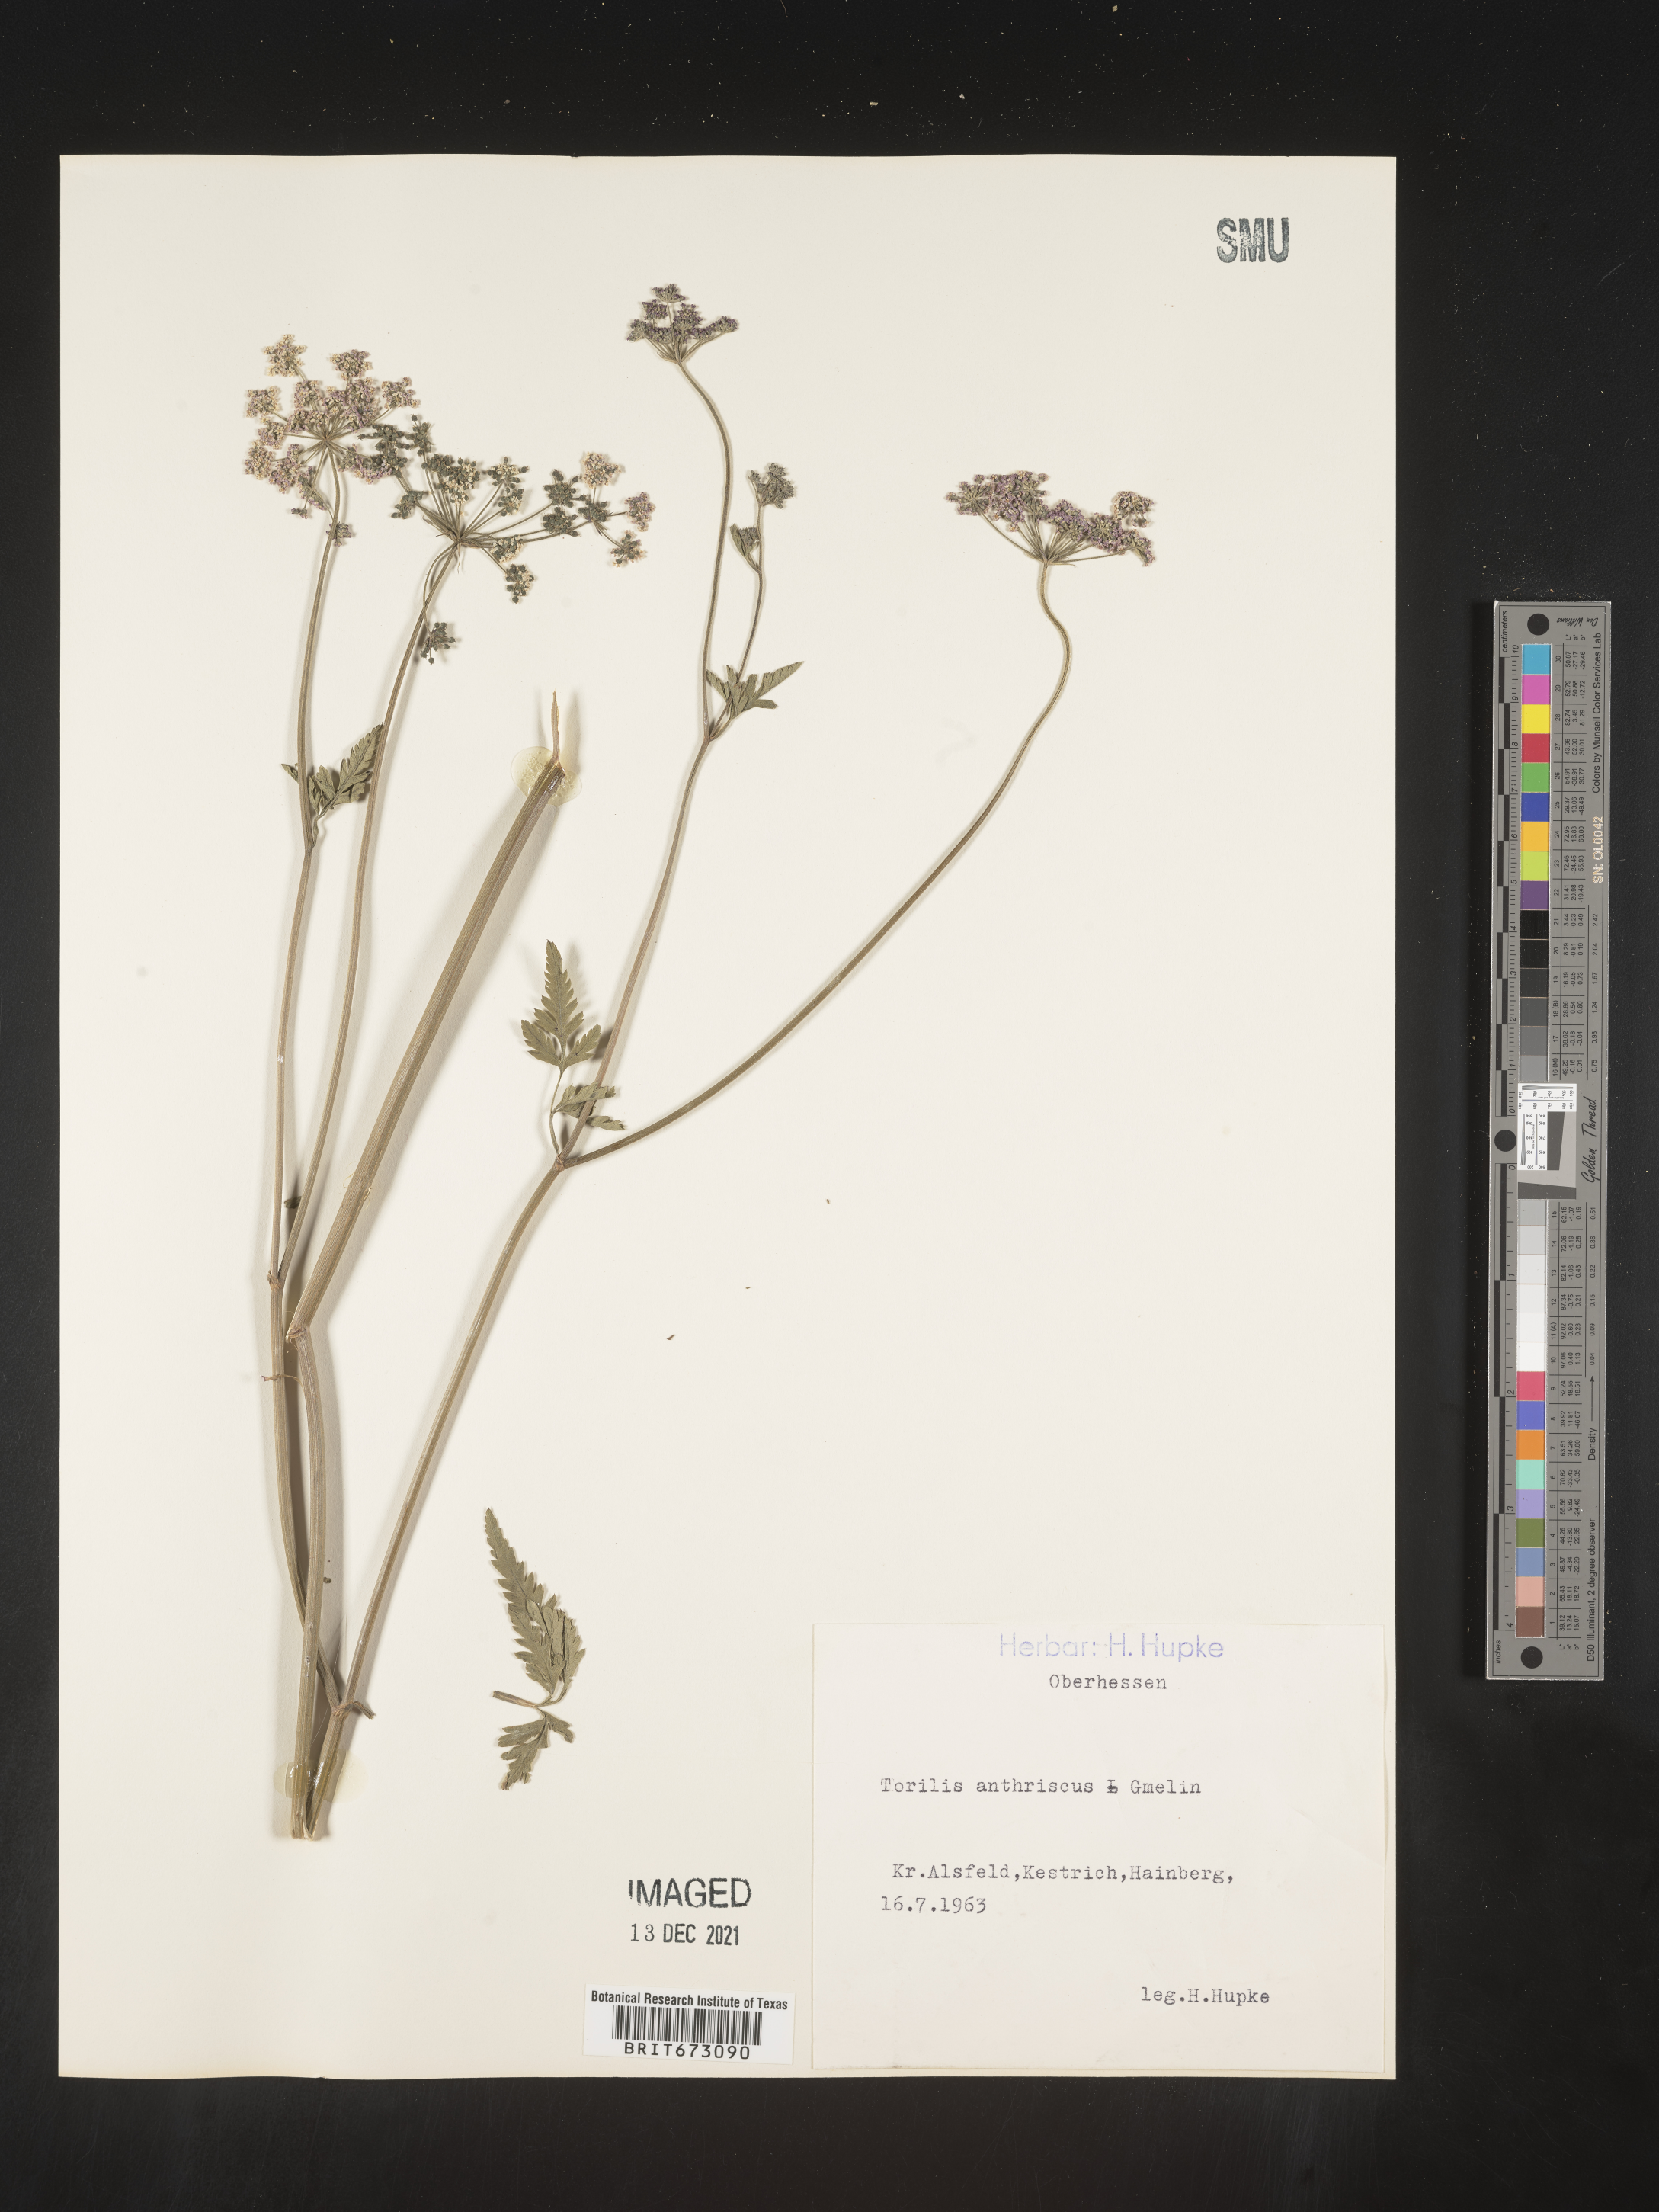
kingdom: Plantae
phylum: Tracheophyta
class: Magnoliopsida
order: Apiales
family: Apiaceae
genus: Torilis
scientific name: Torilis
